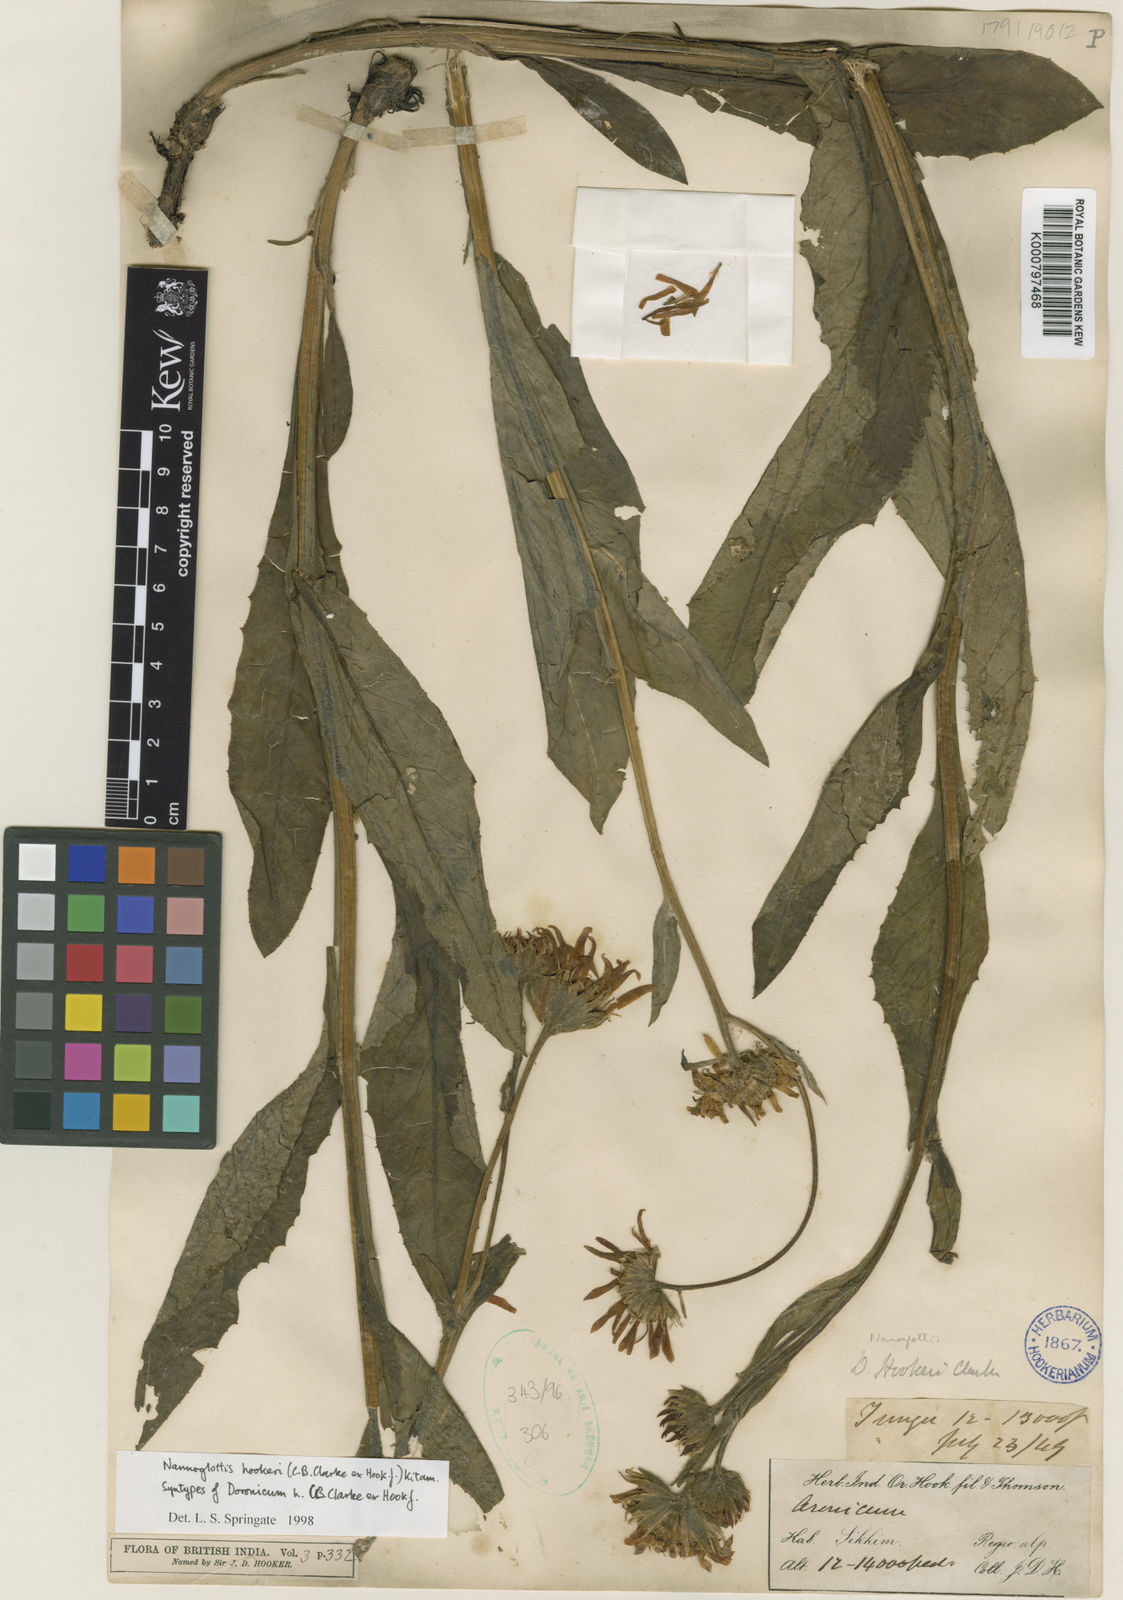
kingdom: Plantae
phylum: Tracheophyta
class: Magnoliopsida
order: Asterales
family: Asteraceae
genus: Nannoglottis
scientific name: Nannoglottis hookeri
